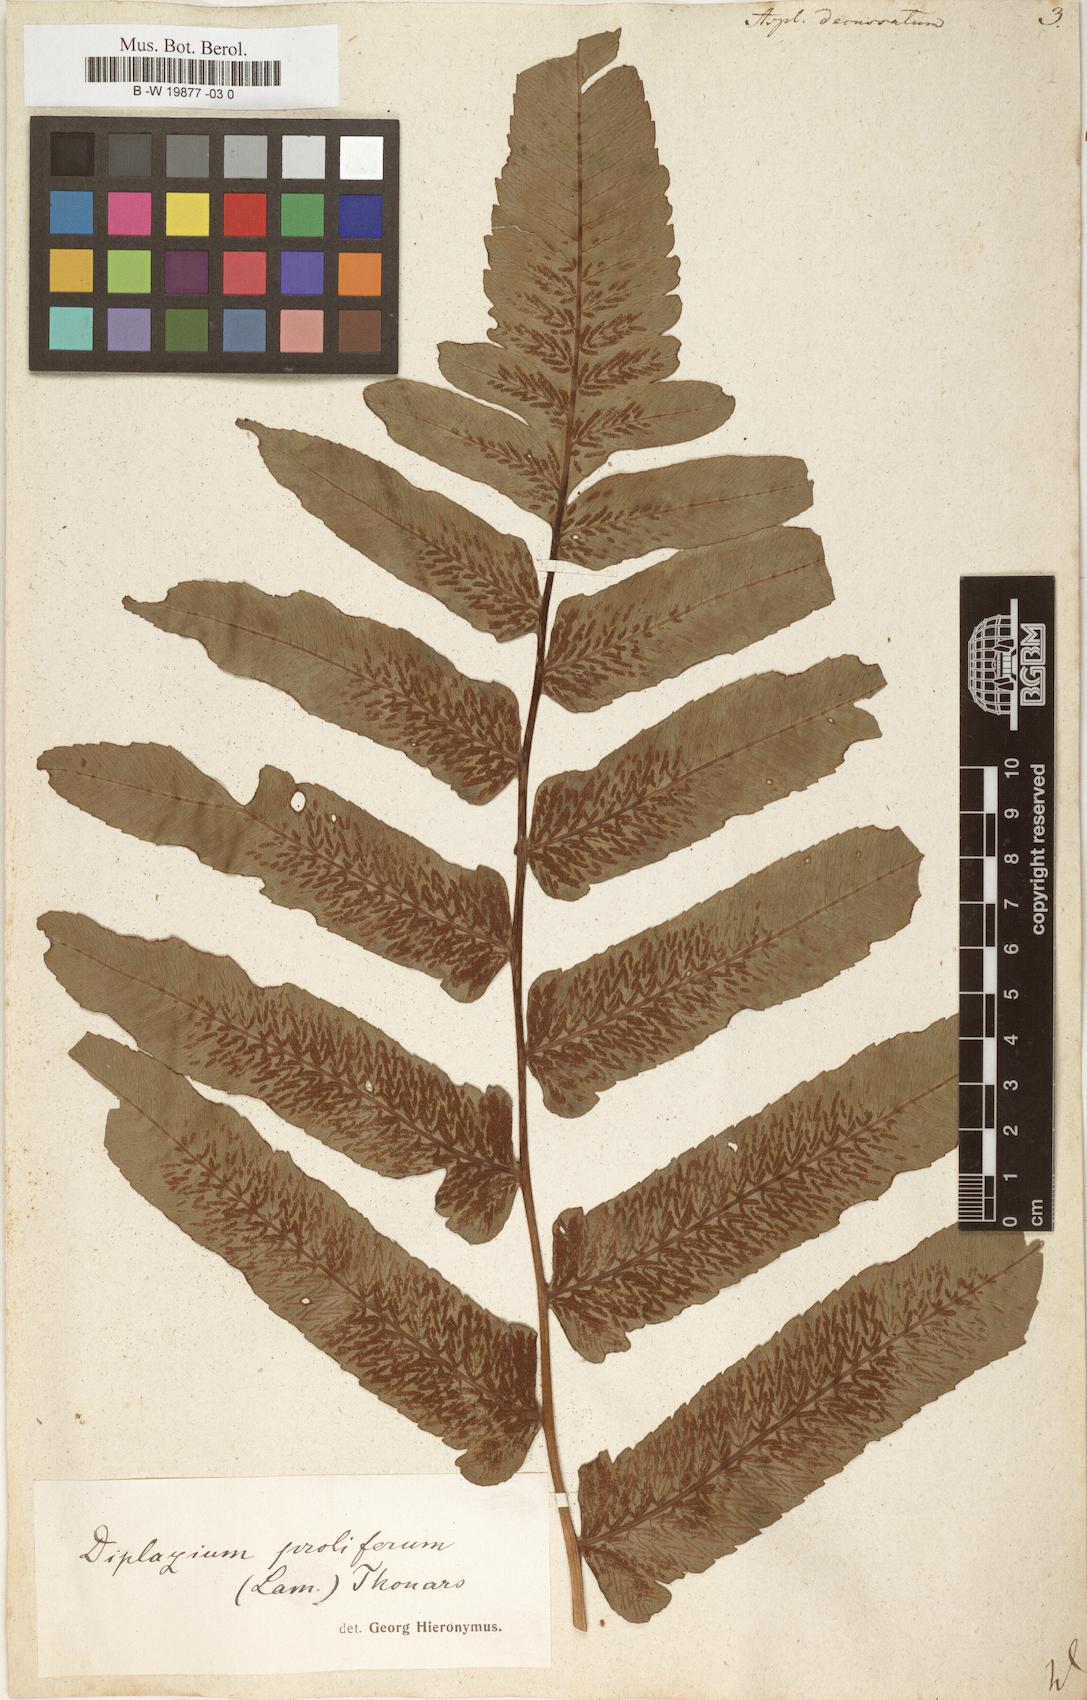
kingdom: Plantae
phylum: Tracheophyta
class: Polypodiopsida
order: Polypodiales
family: Athyriaceae
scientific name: Athyriaceae
